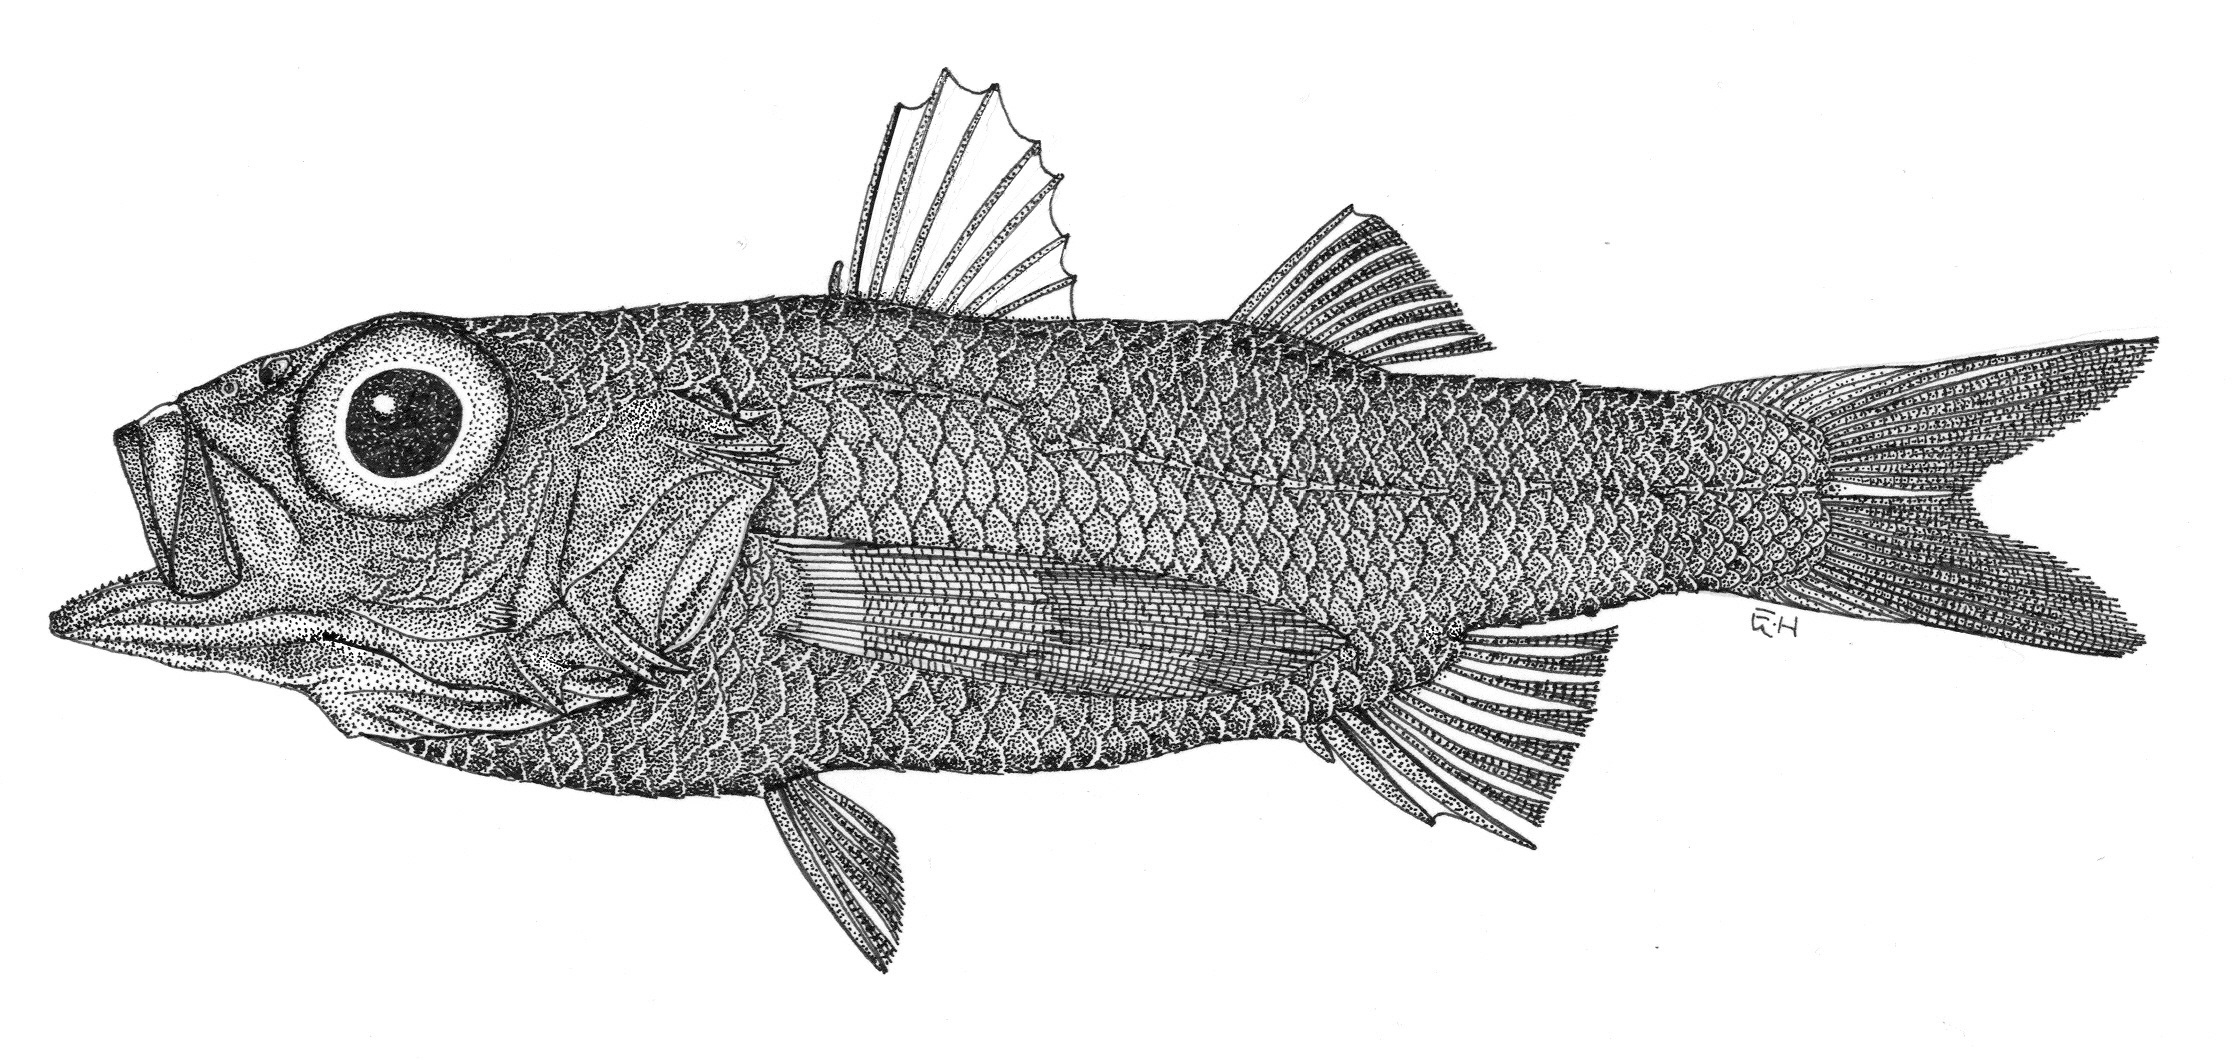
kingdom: Animalia
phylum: Chordata
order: Perciformes
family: Howellidae
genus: Howella
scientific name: Howella sherborni
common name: Pelagic basslet
